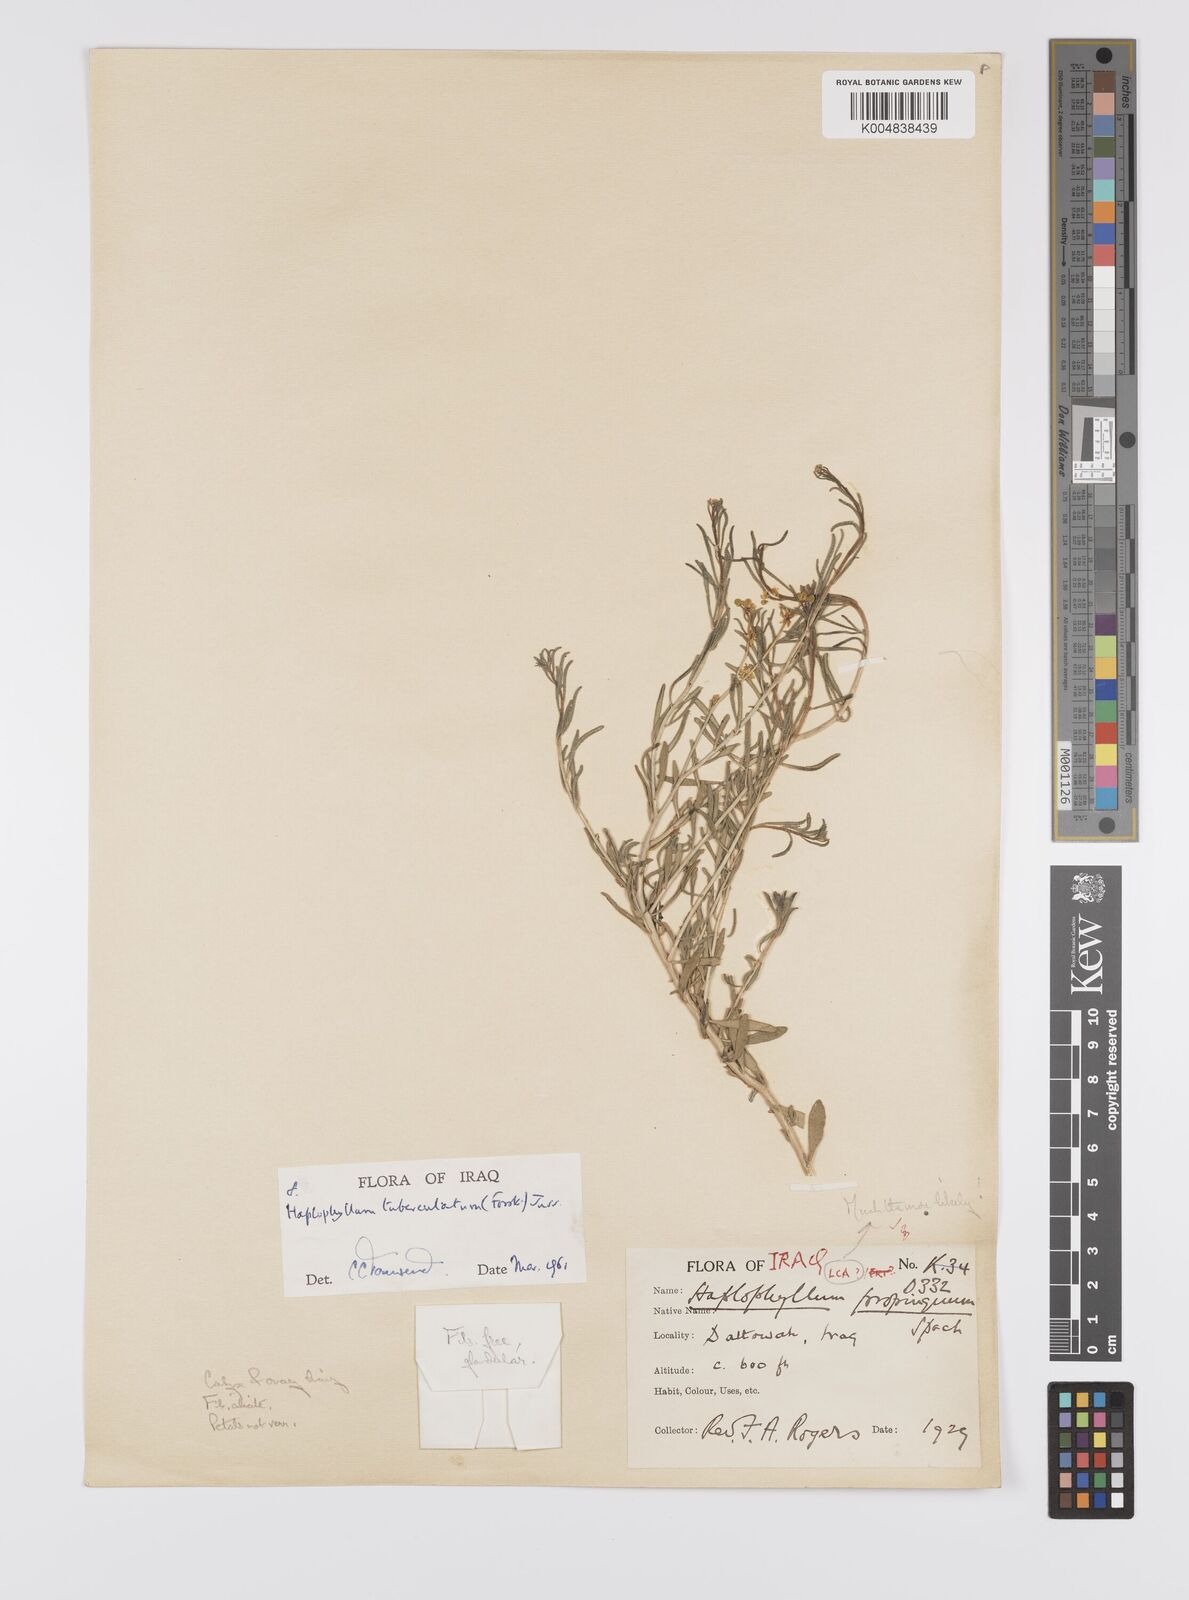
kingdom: Plantae
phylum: Tracheophyta
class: Magnoliopsida
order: Sapindales
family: Rutaceae
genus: Haplophyllum
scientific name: Haplophyllum tuberculatum
